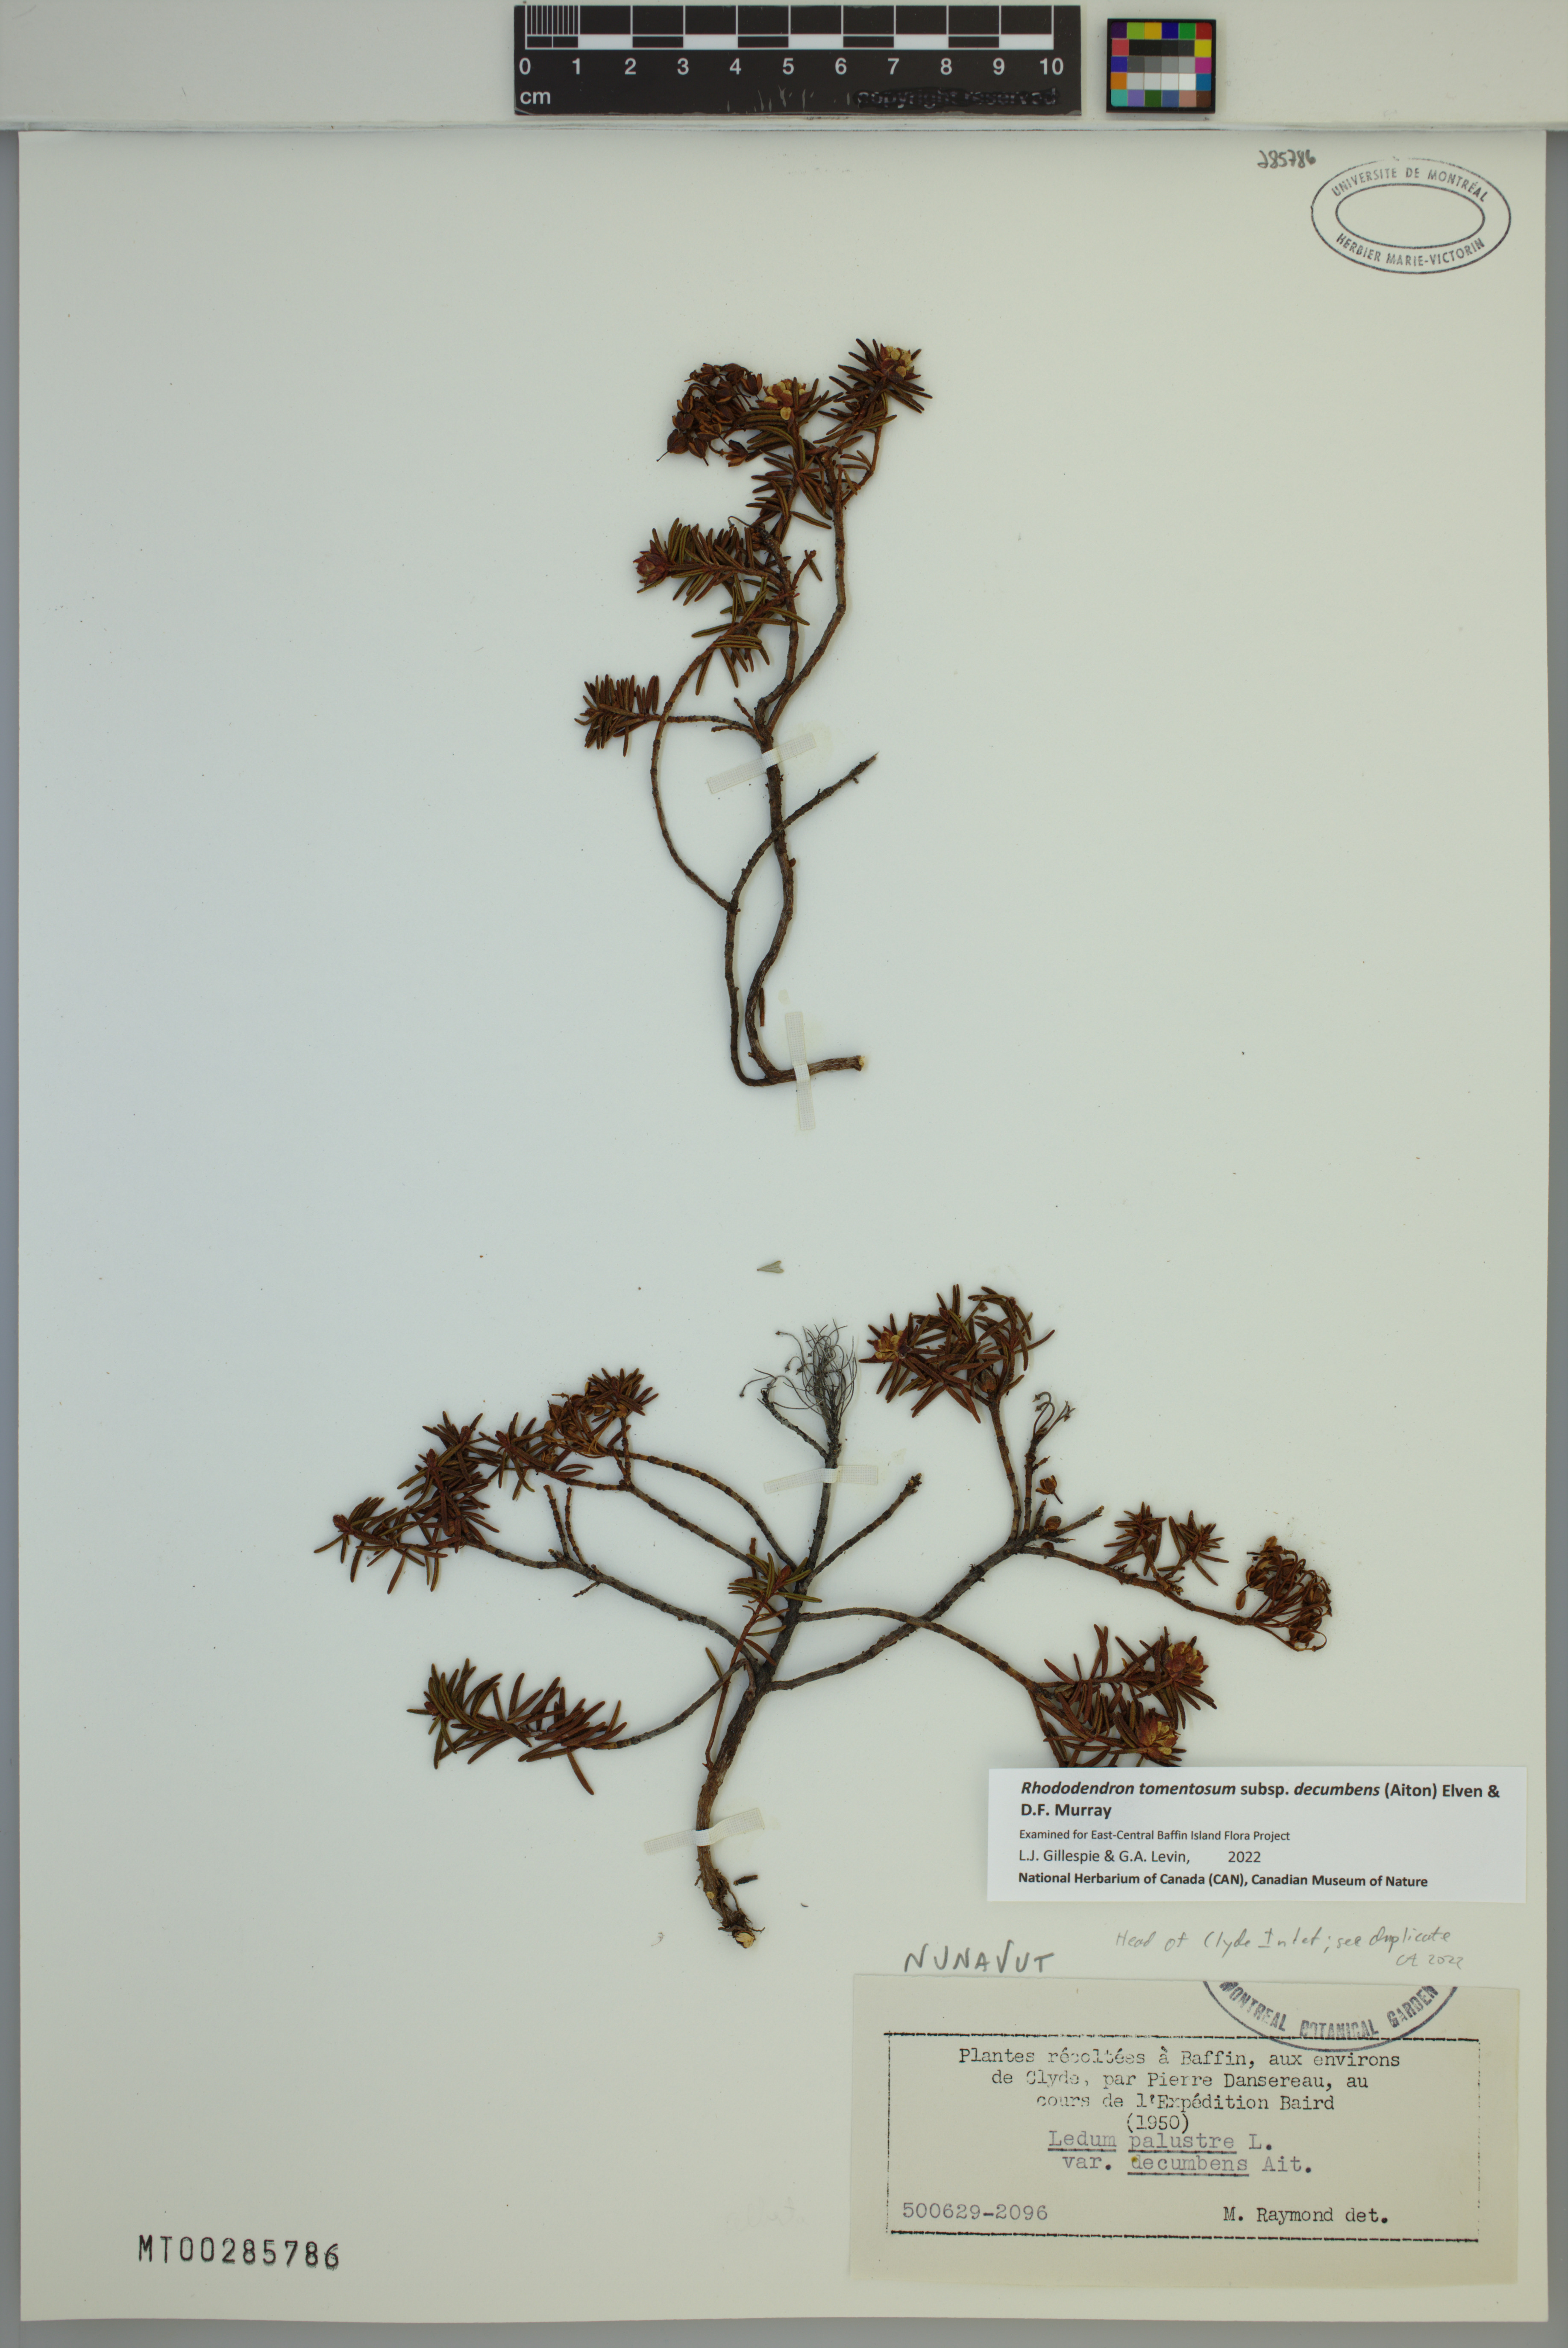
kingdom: Plantae
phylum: Tracheophyta
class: Magnoliopsida
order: Ericales
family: Ericaceae
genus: Rhododendron
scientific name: Rhododendron tomentosum
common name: Marsh labrador tea
